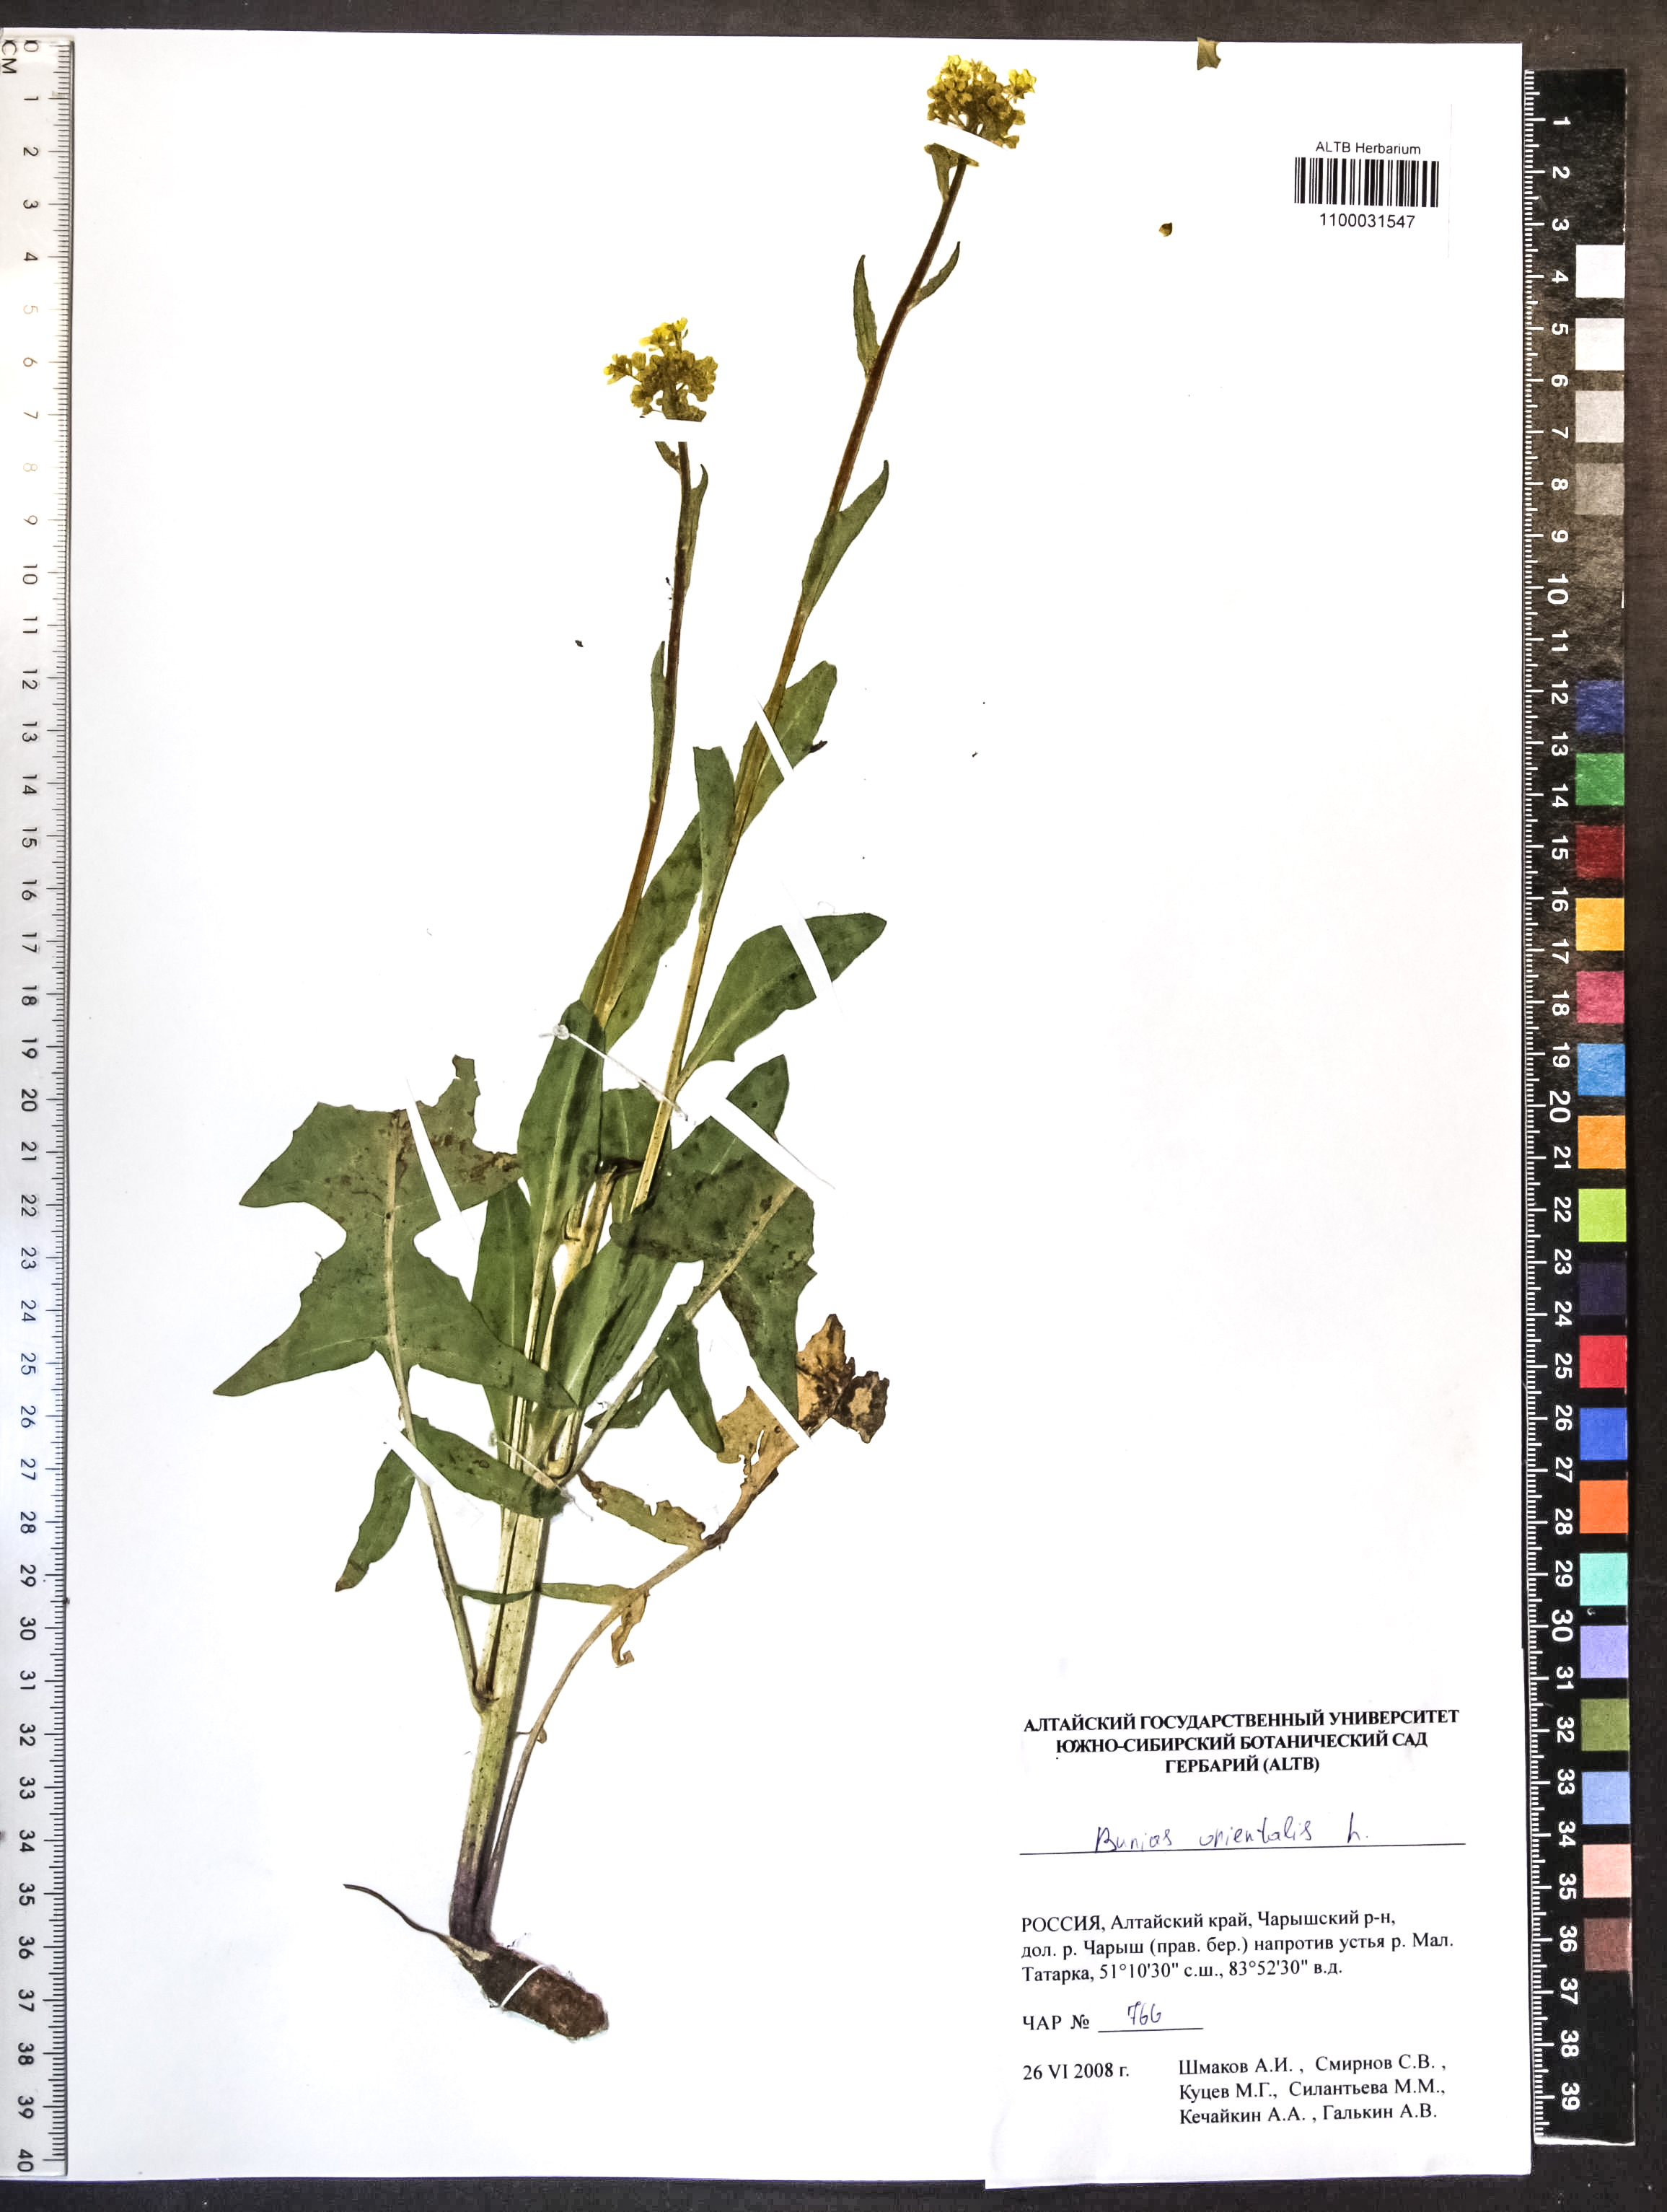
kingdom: Plantae
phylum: Tracheophyta
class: Magnoliopsida
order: Brassicales
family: Brassicaceae
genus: Bunias
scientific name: Bunias orientalis
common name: Warty-cabbage
